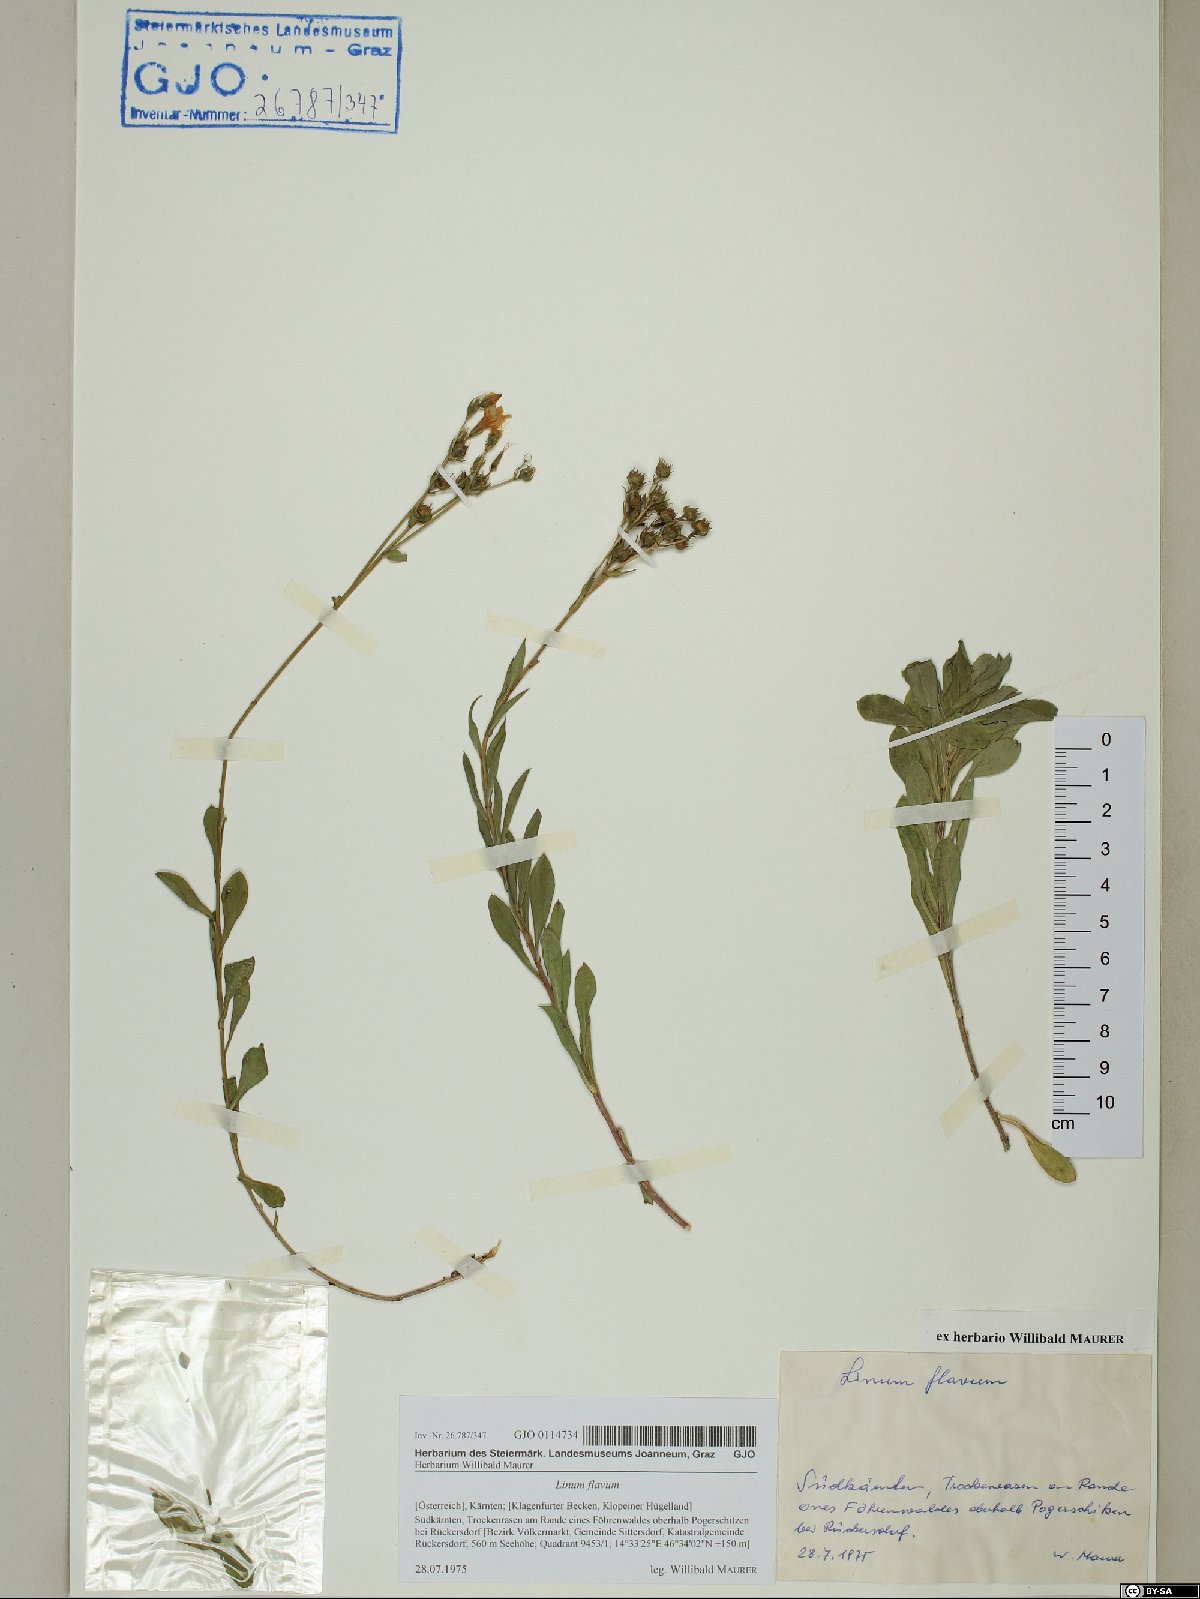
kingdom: Plantae
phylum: Tracheophyta
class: Magnoliopsida
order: Malpighiales
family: Linaceae
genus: Linum
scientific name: Linum flavum
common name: Yellow flax
